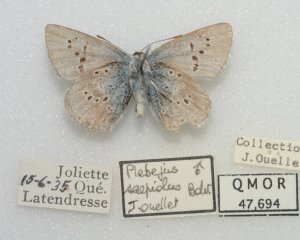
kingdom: Animalia
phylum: Arthropoda
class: Insecta
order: Lepidoptera
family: Lycaenidae
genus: Plebejus
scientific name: Plebejus saepiolus
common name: Greenish Blue
